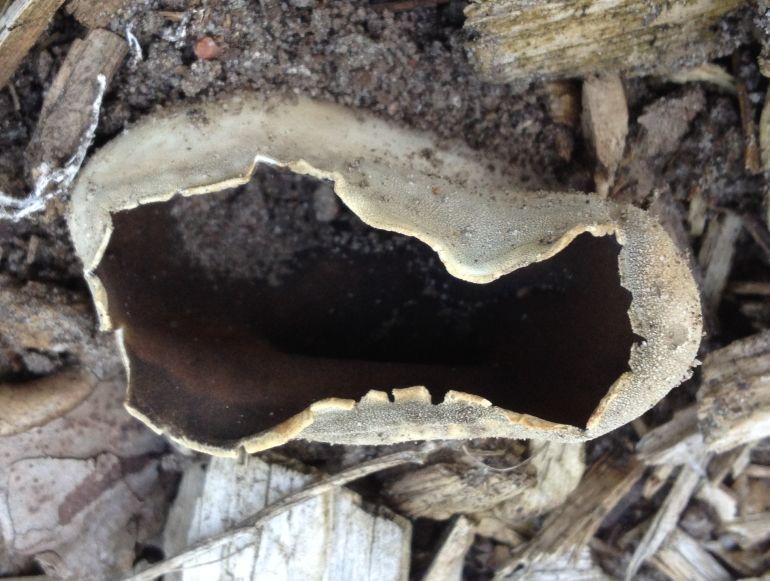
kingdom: Fungi
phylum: Ascomycota
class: Pezizomycetes
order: Pezizales
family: Helvellaceae
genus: Dissingia
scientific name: Dissingia leucomelaena
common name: sorthvid foldhat
